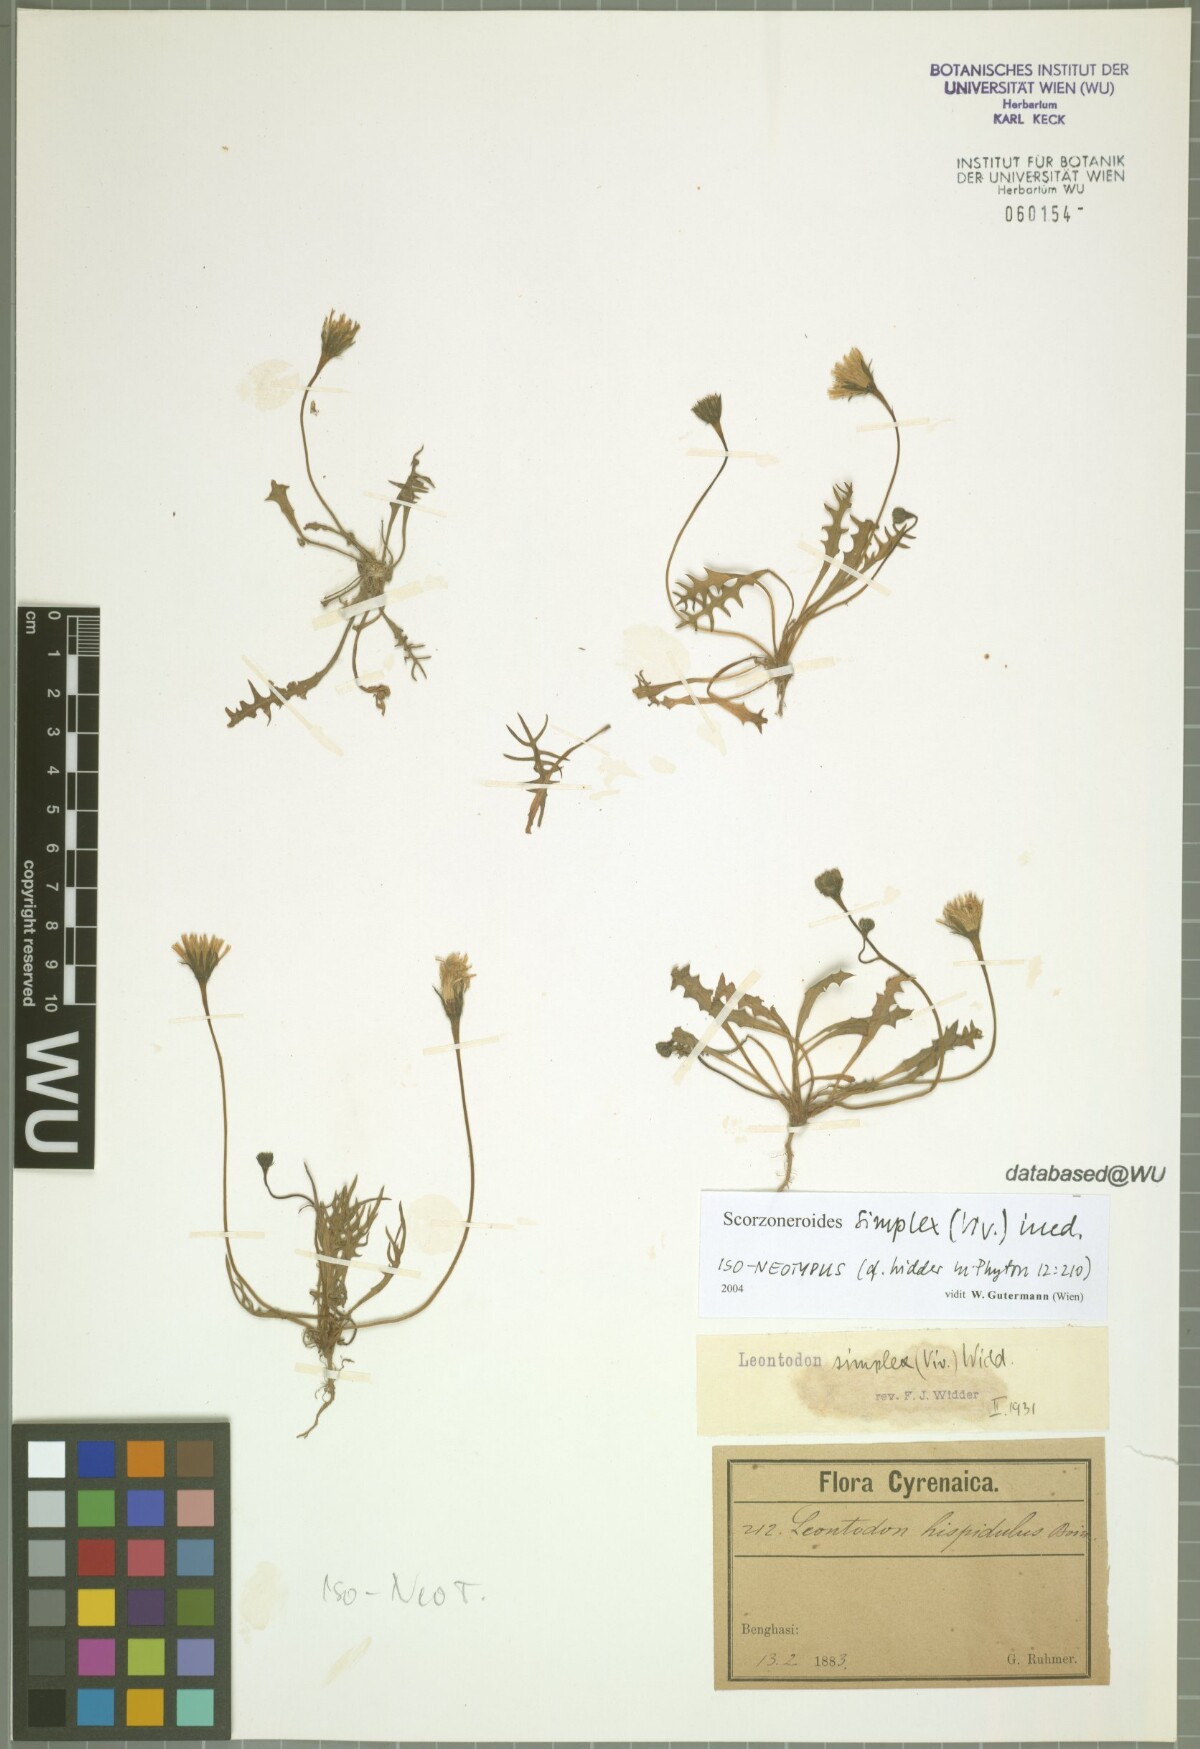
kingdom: Plantae
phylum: Tracheophyta
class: Magnoliopsida
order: Asterales
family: Asteraceae
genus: Scorzoneroides
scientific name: Scorzoneroides simplex
